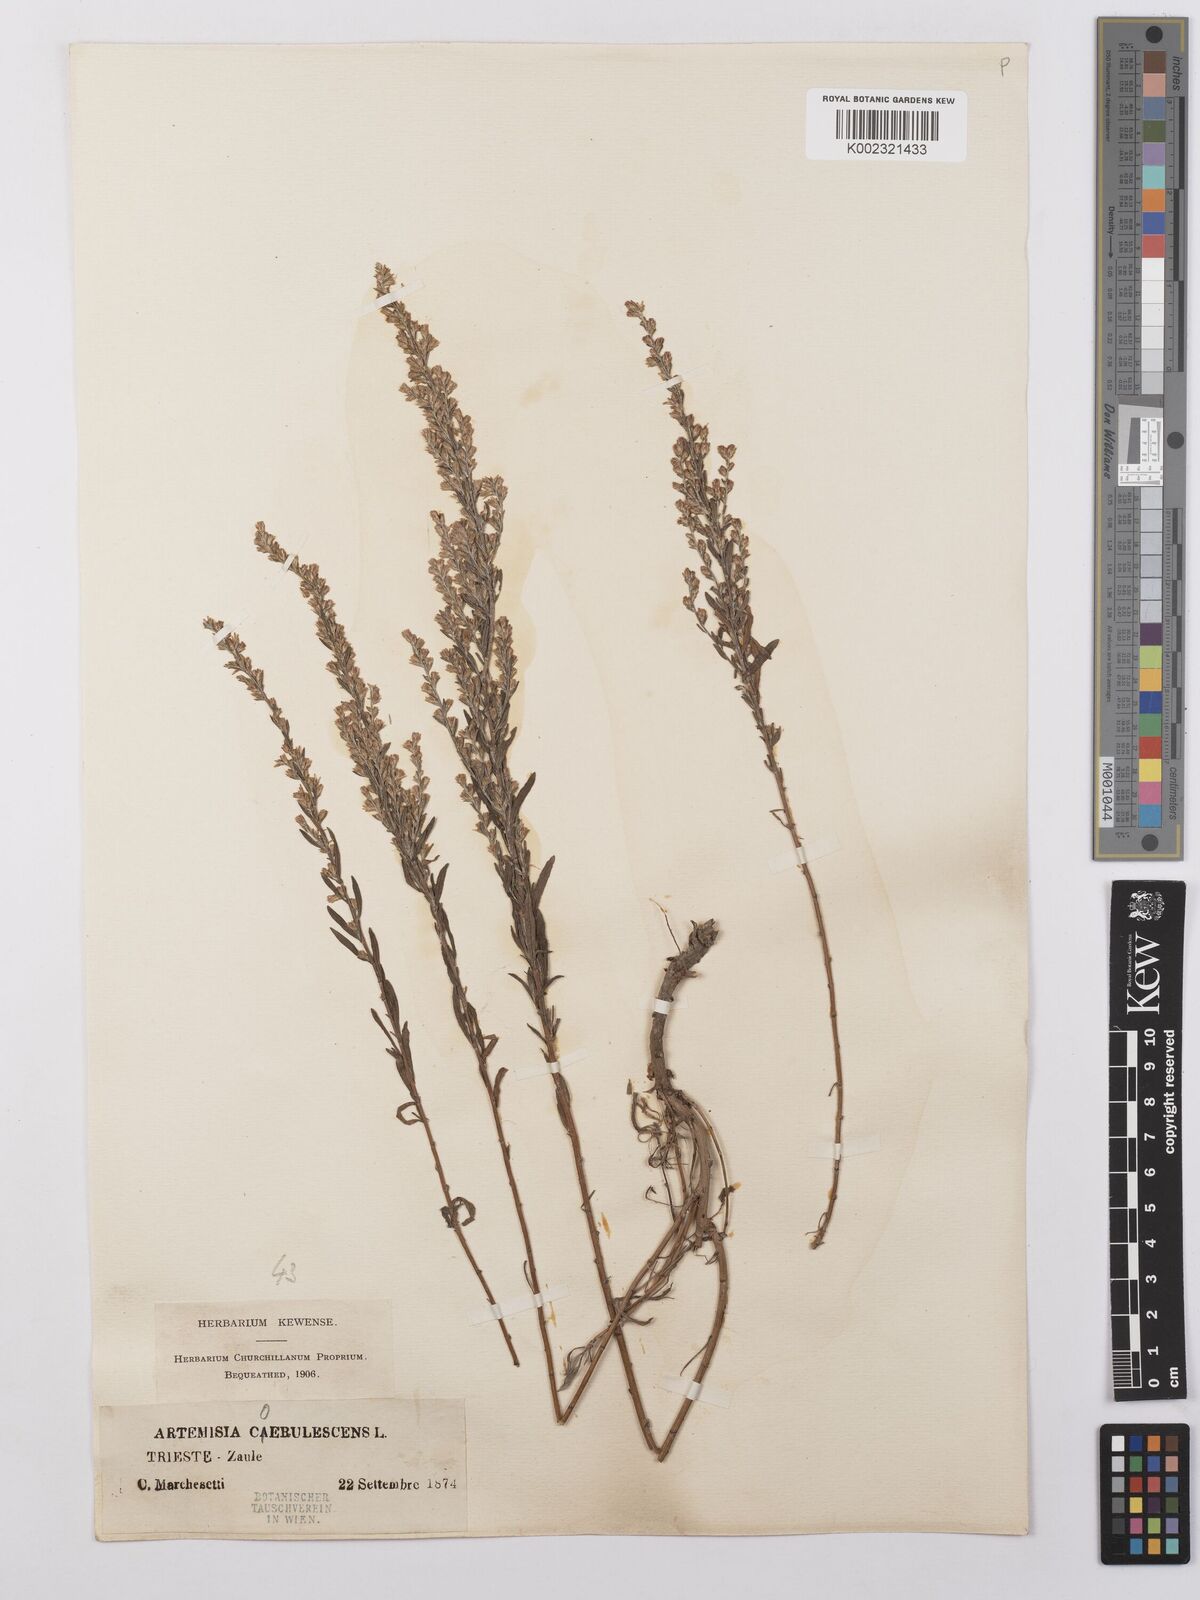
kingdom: Plantae
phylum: Tracheophyta
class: Magnoliopsida
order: Asterales
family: Asteraceae
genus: Artemisia
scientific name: Artemisia caerulescens
